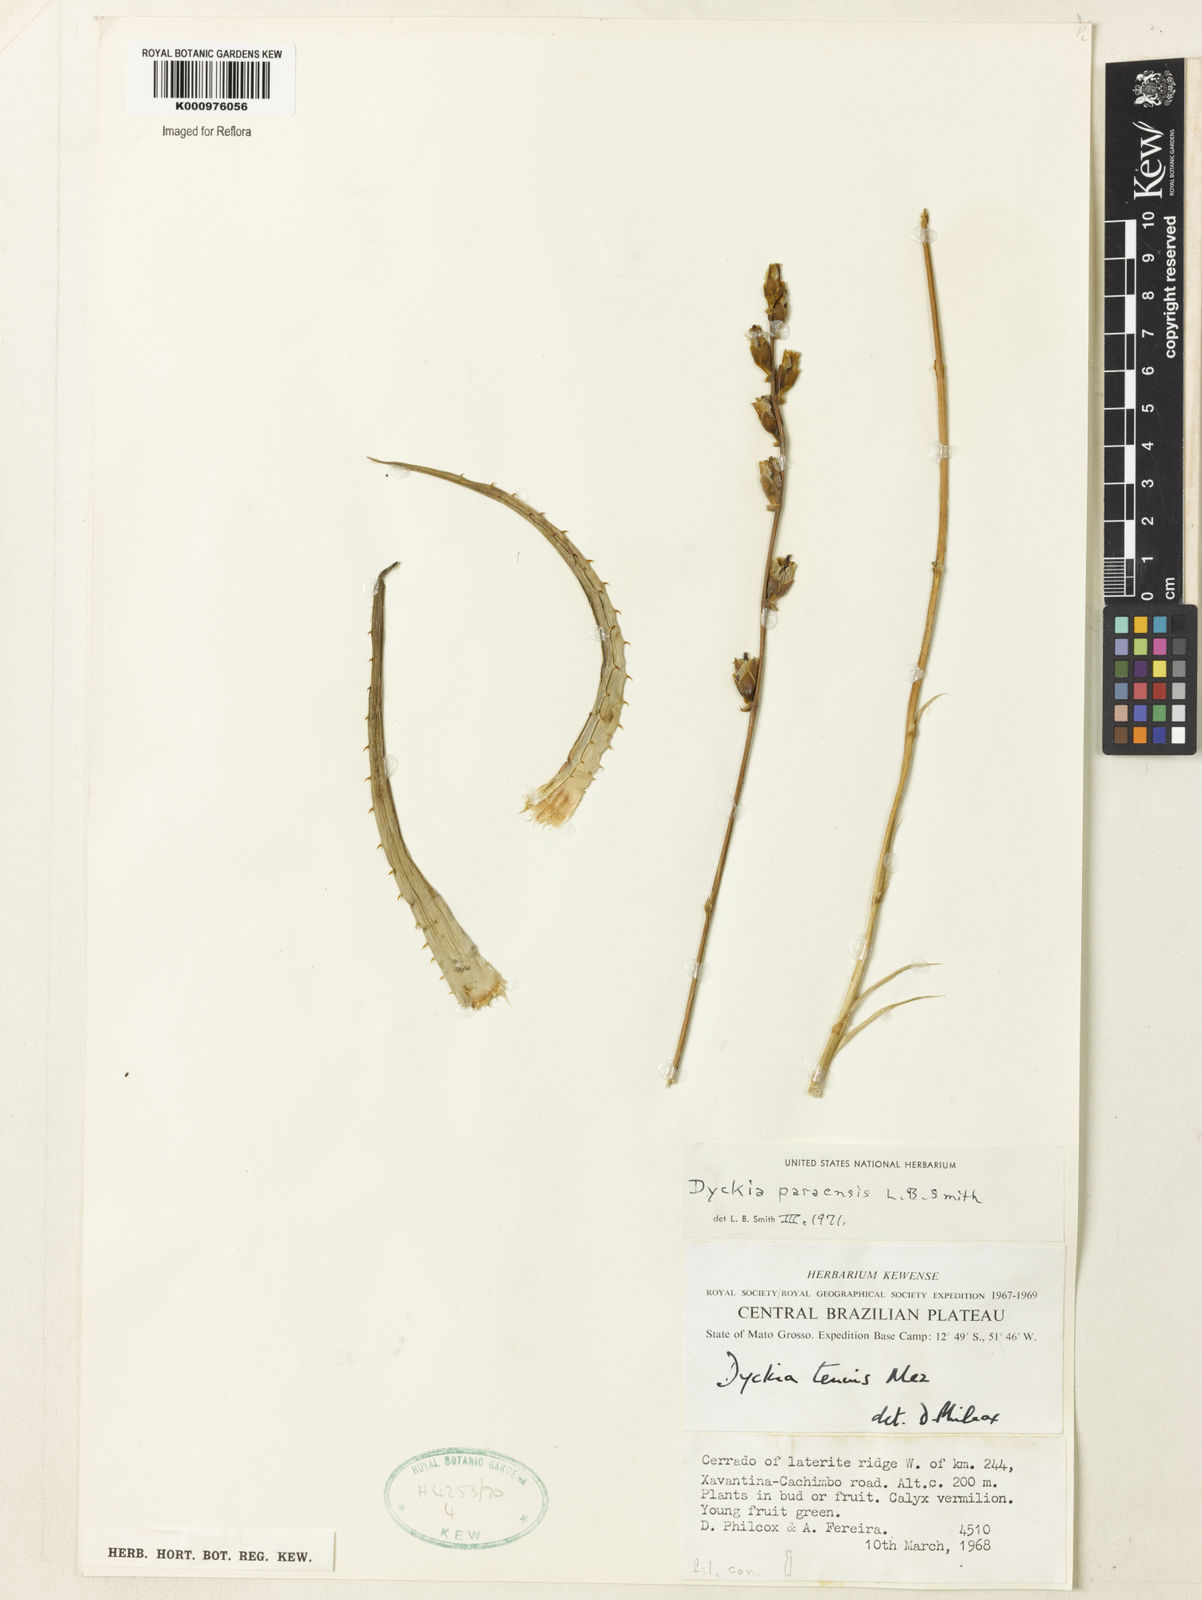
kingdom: Plantae
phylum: Tracheophyta
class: Liliopsida
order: Poales
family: Bromeliaceae
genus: Dyckia
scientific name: Dyckia paraensis
